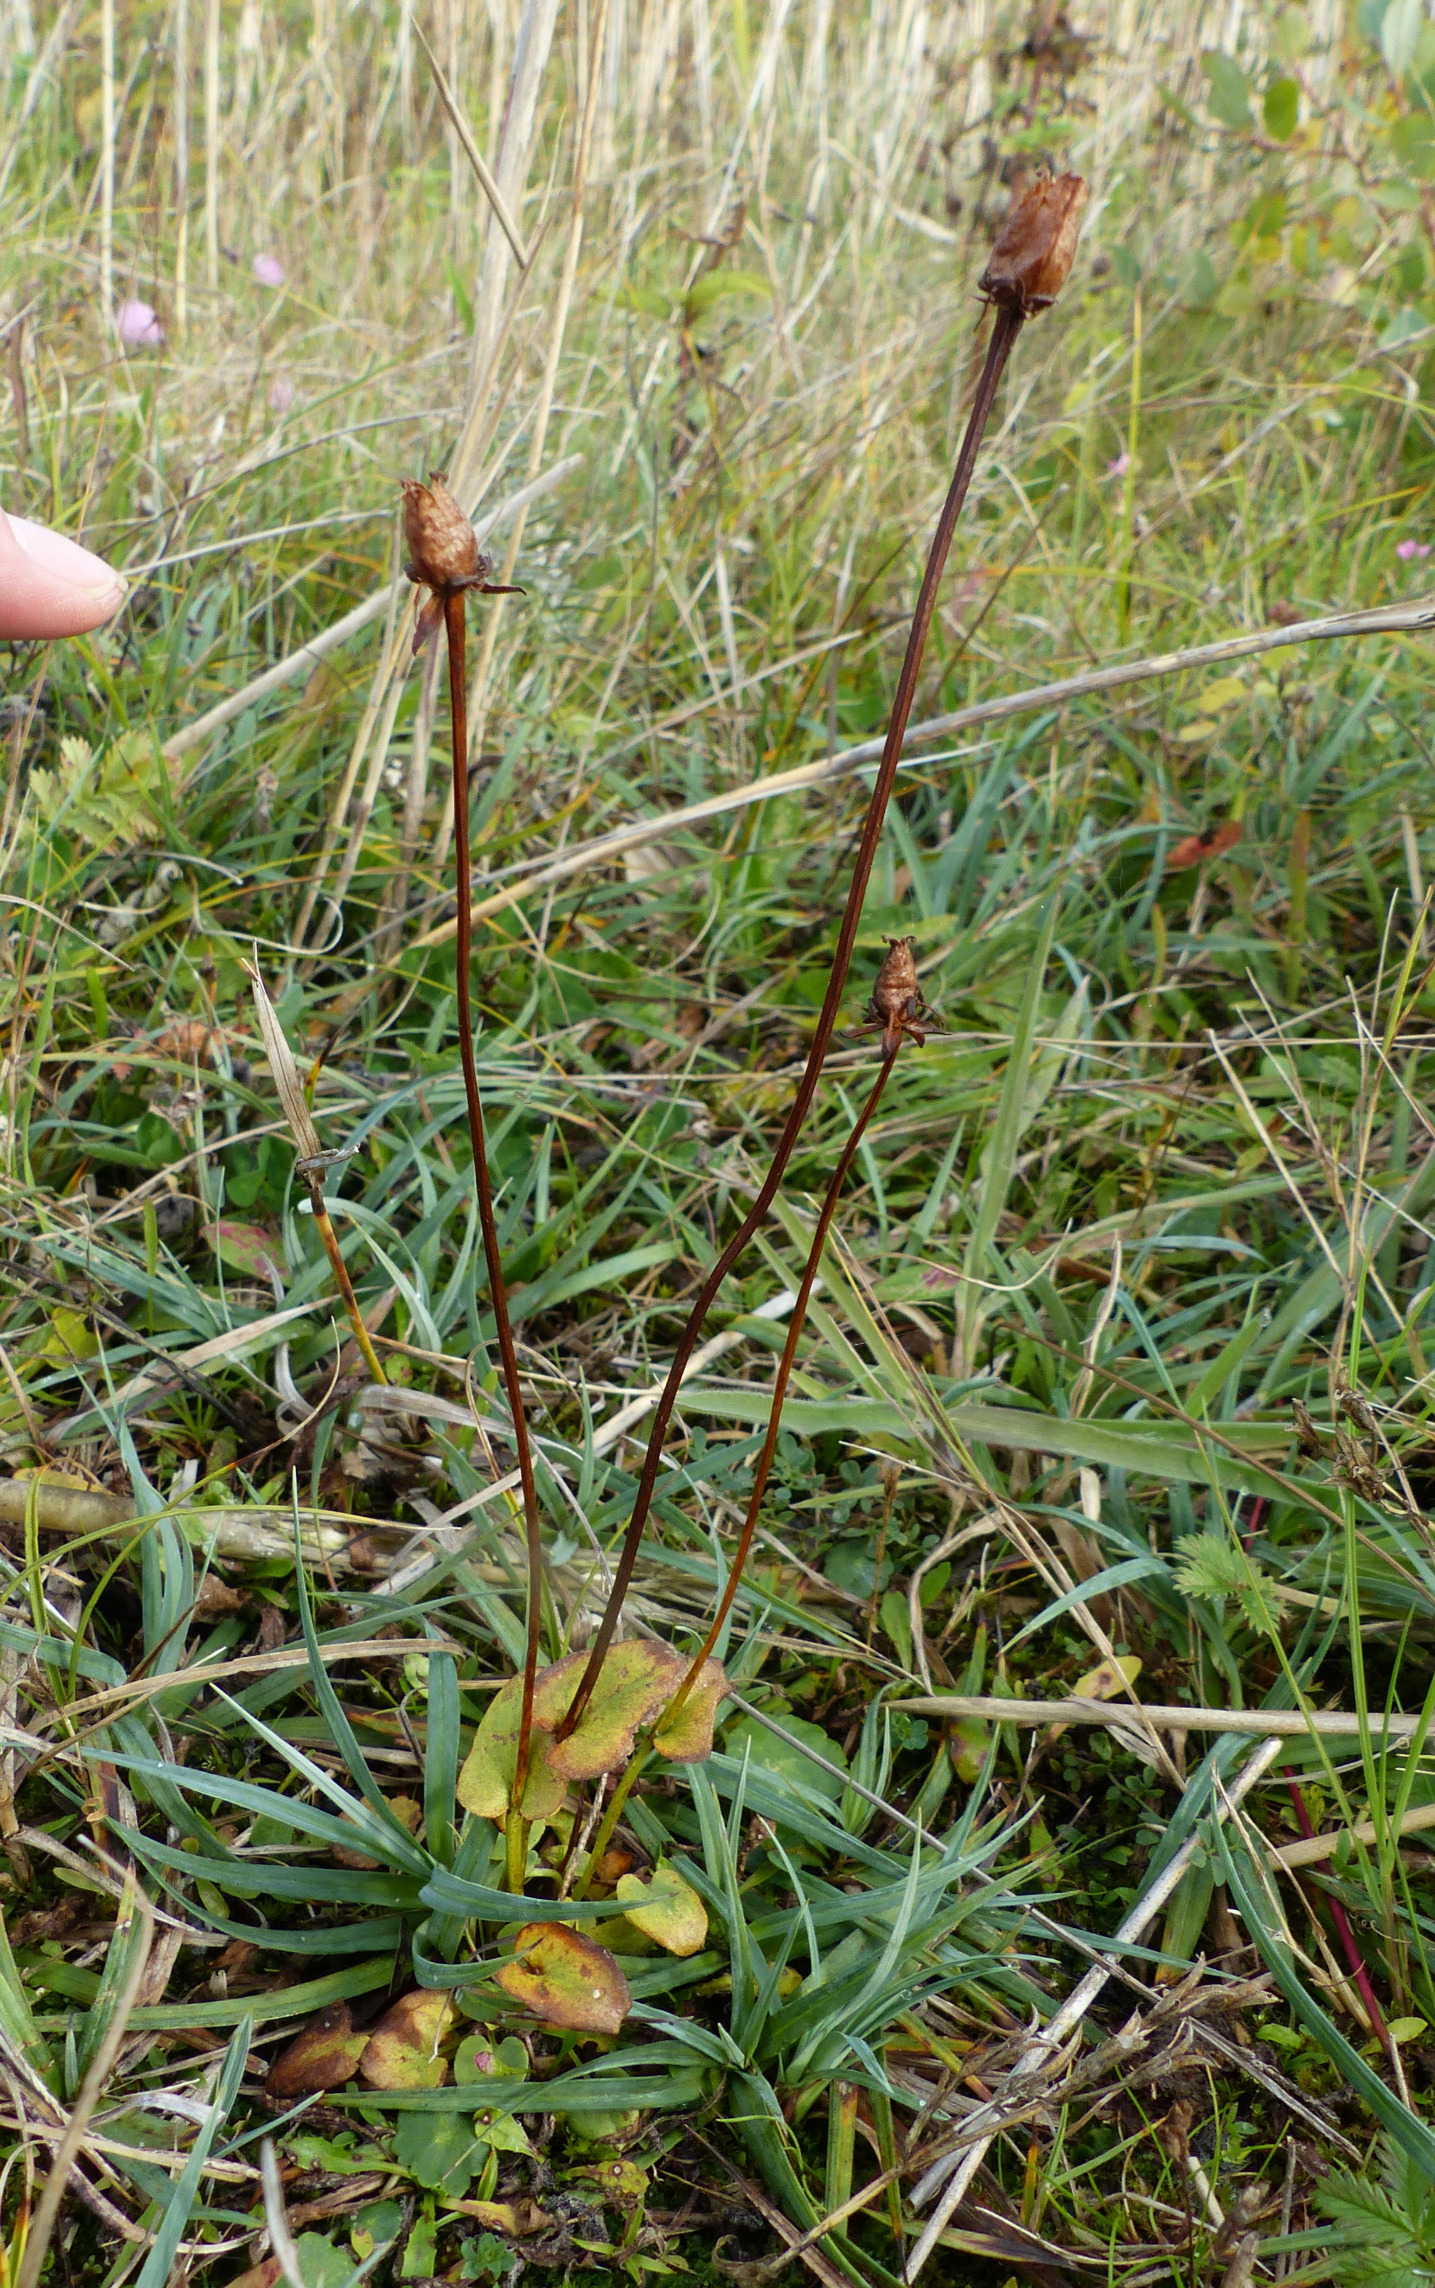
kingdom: Plantae
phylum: Tracheophyta
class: Magnoliopsida
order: Celastrales
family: Parnassiaceae
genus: Parnassia
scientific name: Parnassia palustris
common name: Leverurt
